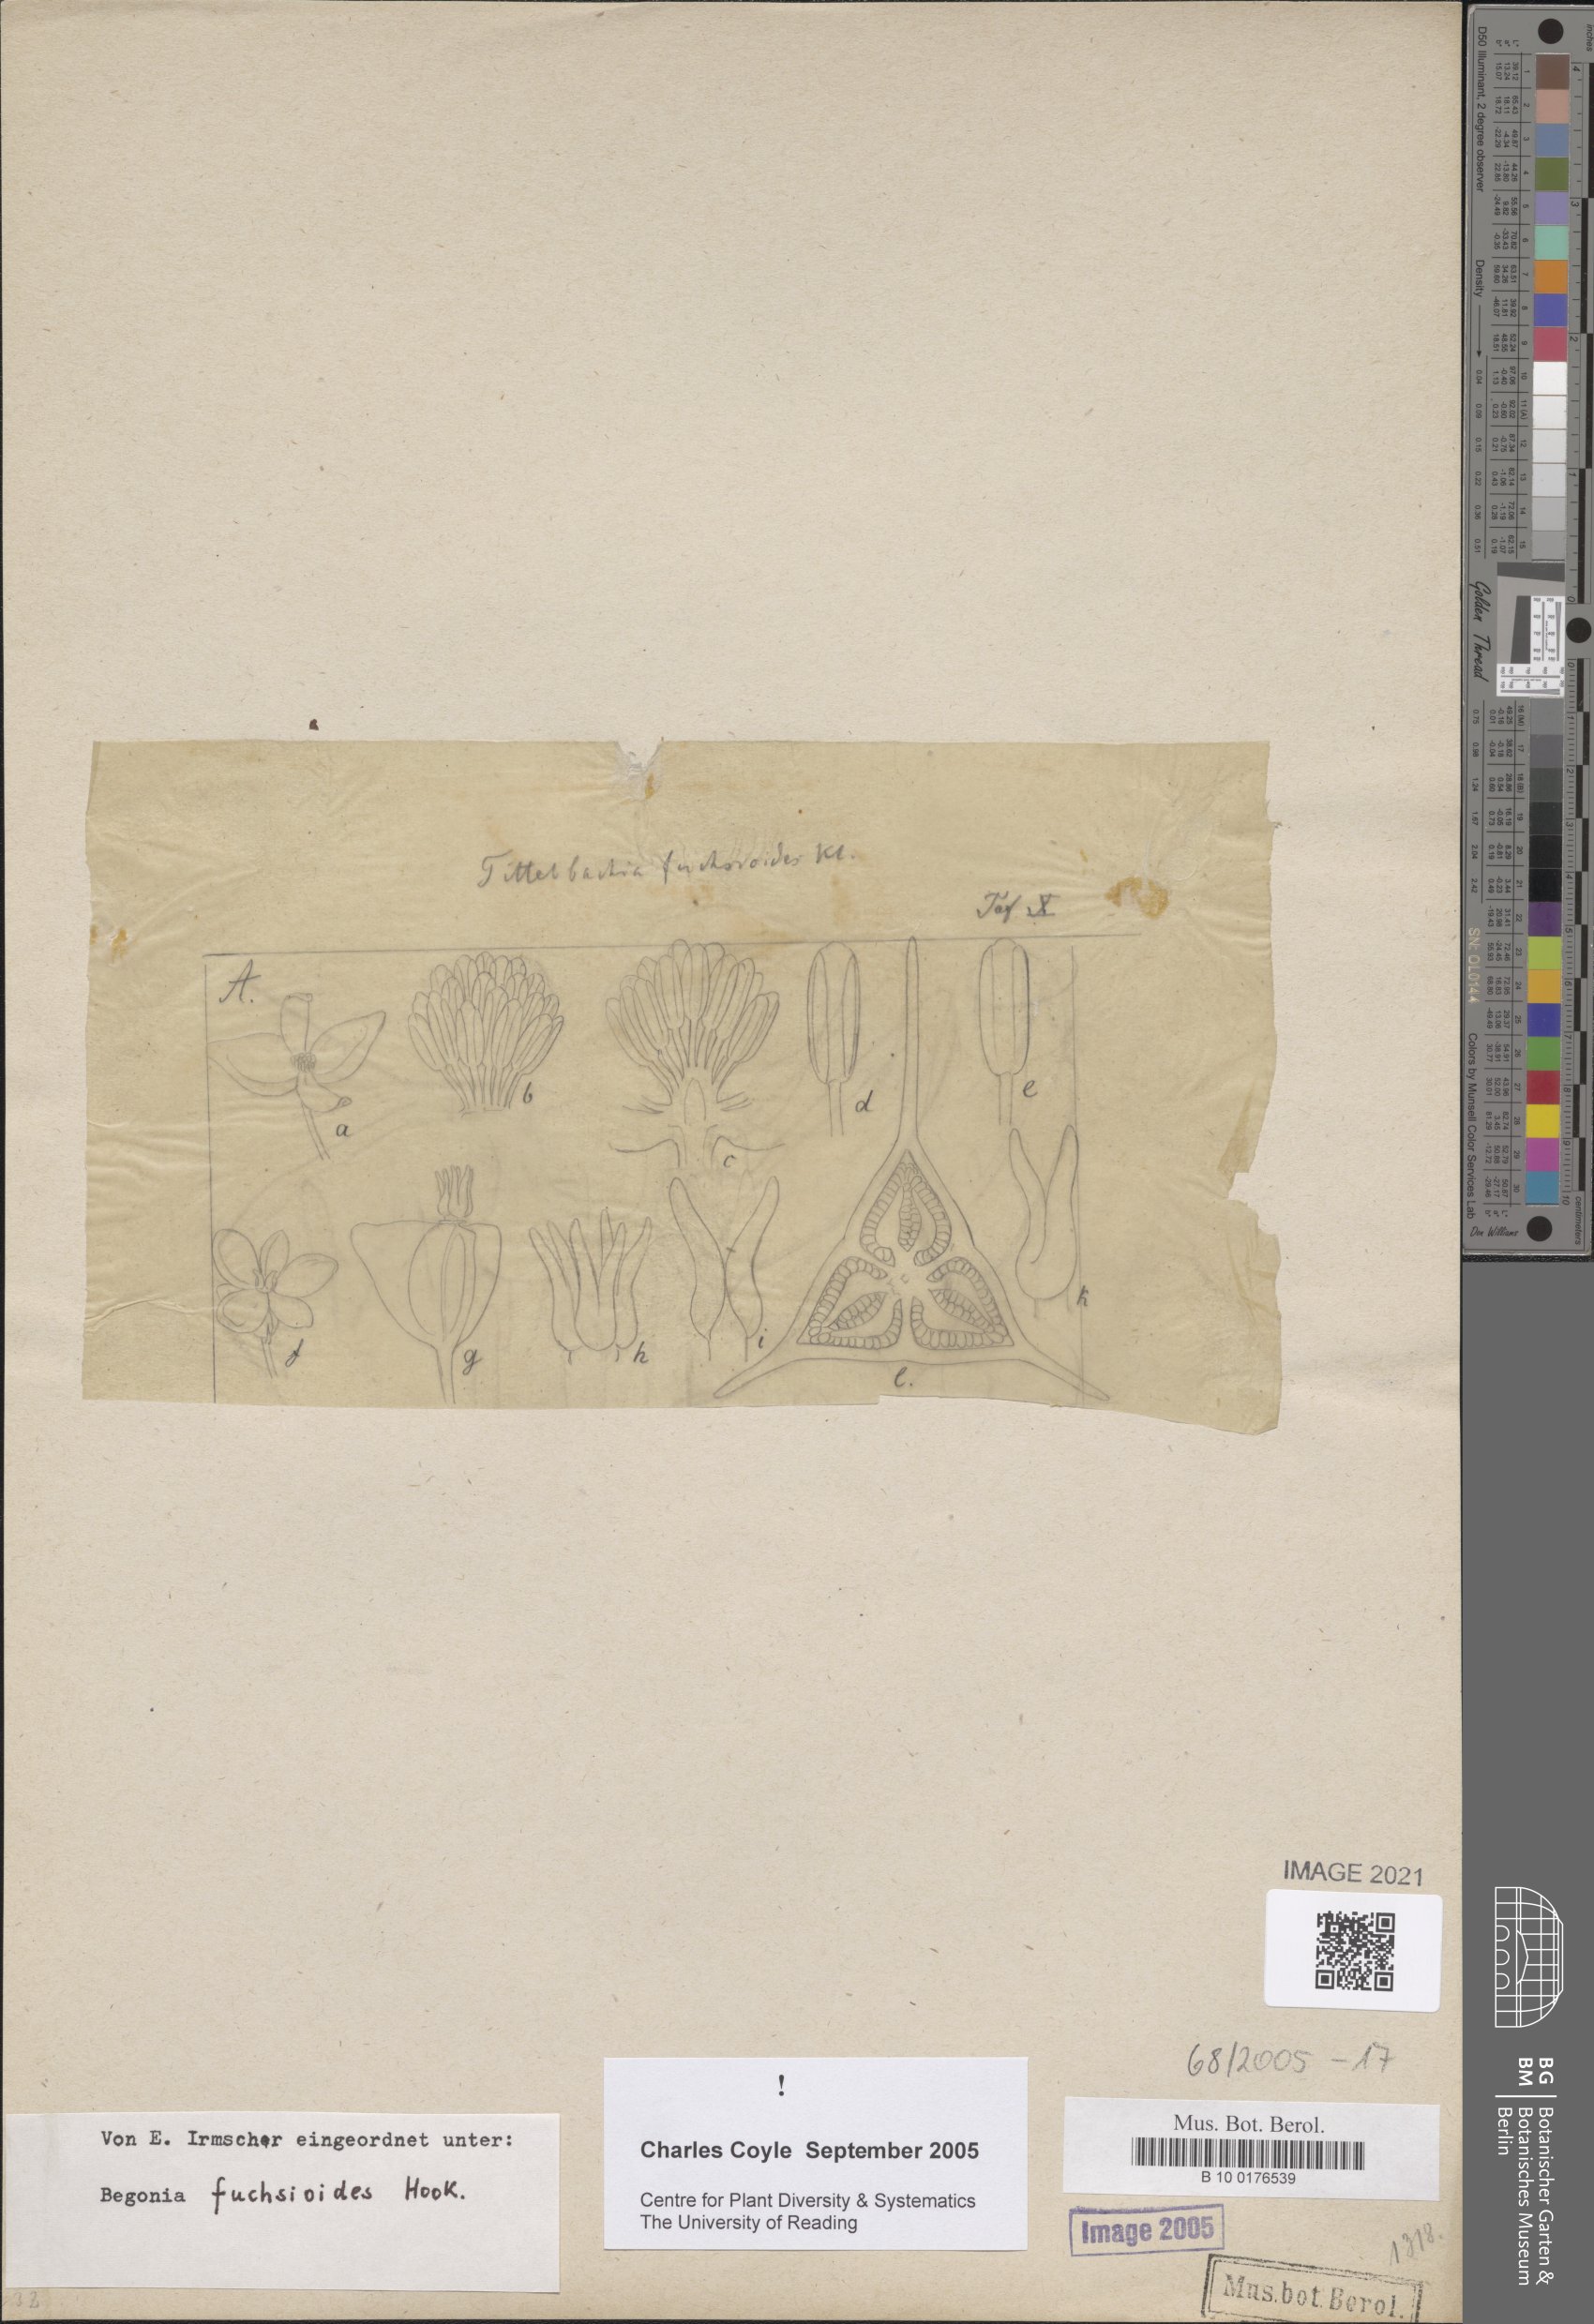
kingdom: Plantae
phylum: Tracheophyta
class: Magnoliopsida
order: Cucurbitales
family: Begoniaceae
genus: Begonia
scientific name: Begonia fuchsioides
